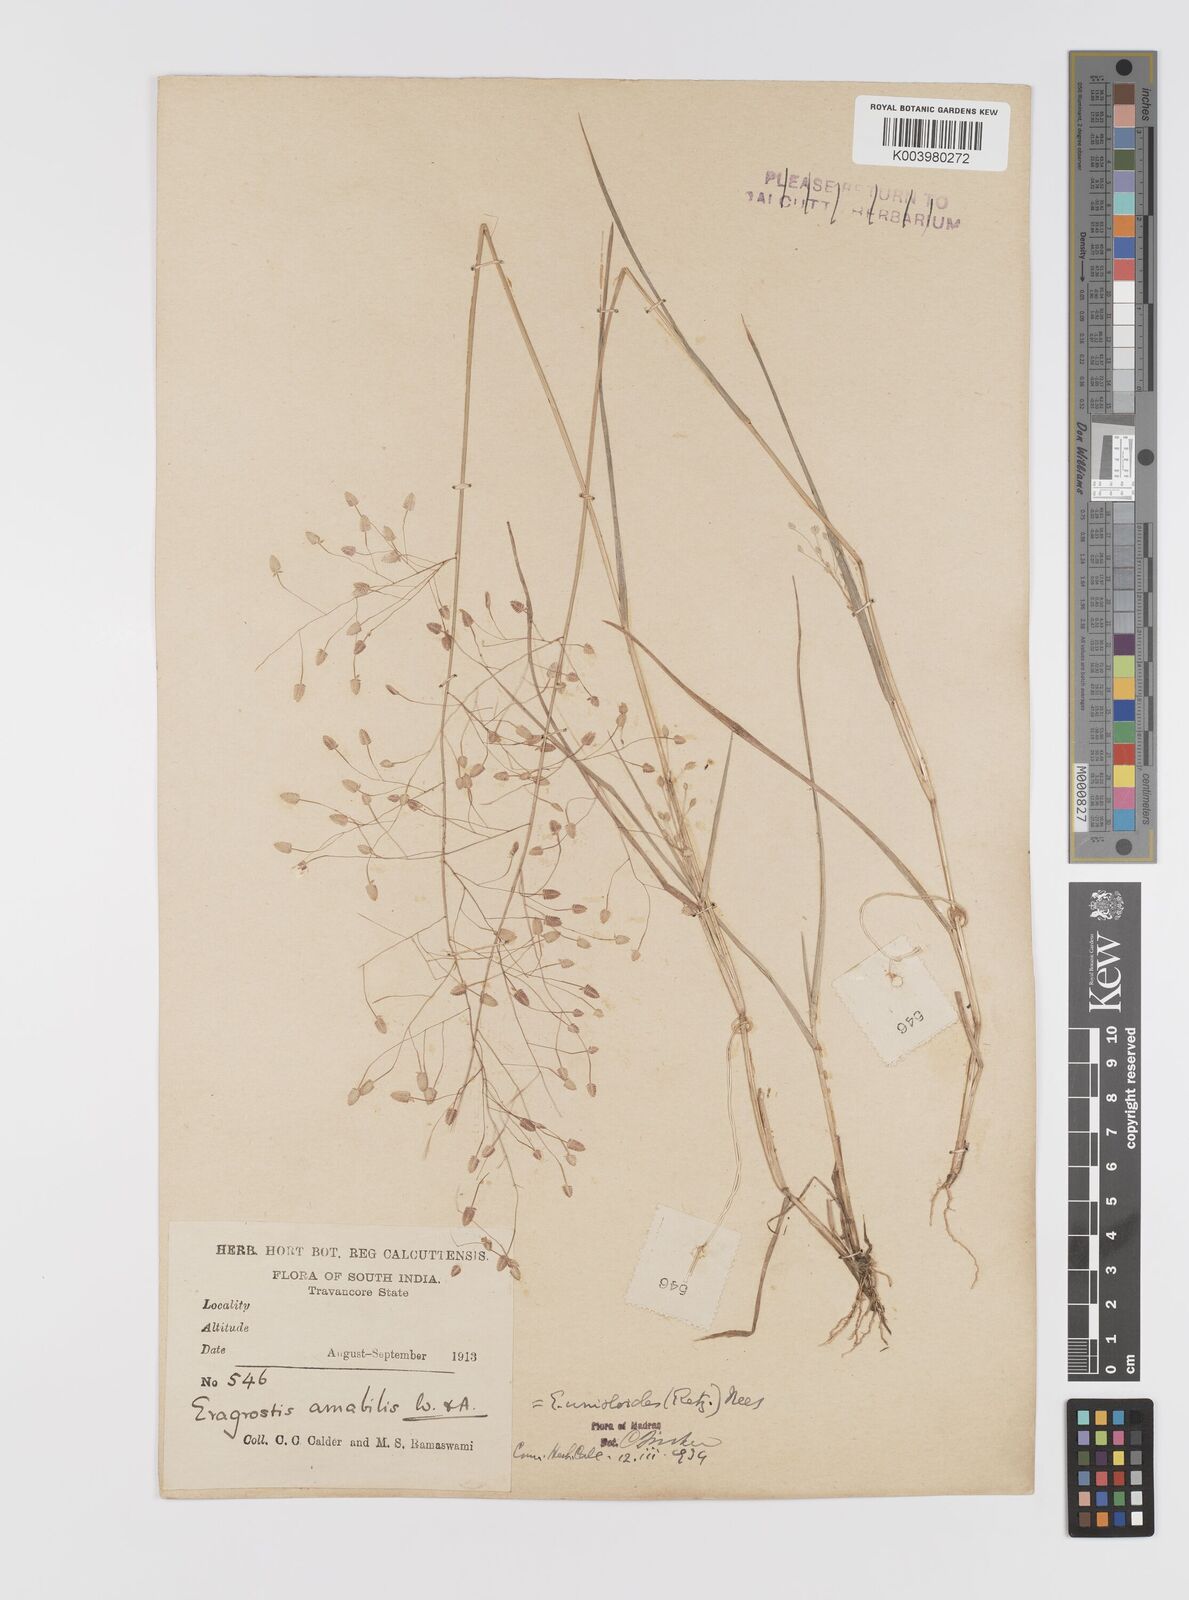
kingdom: Plantae
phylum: Tracheophyta
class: Liliopsida
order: Poales
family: Poaceae
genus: Eragrostis
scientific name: Eragrostis unioloides
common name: Chinese lovegrass
